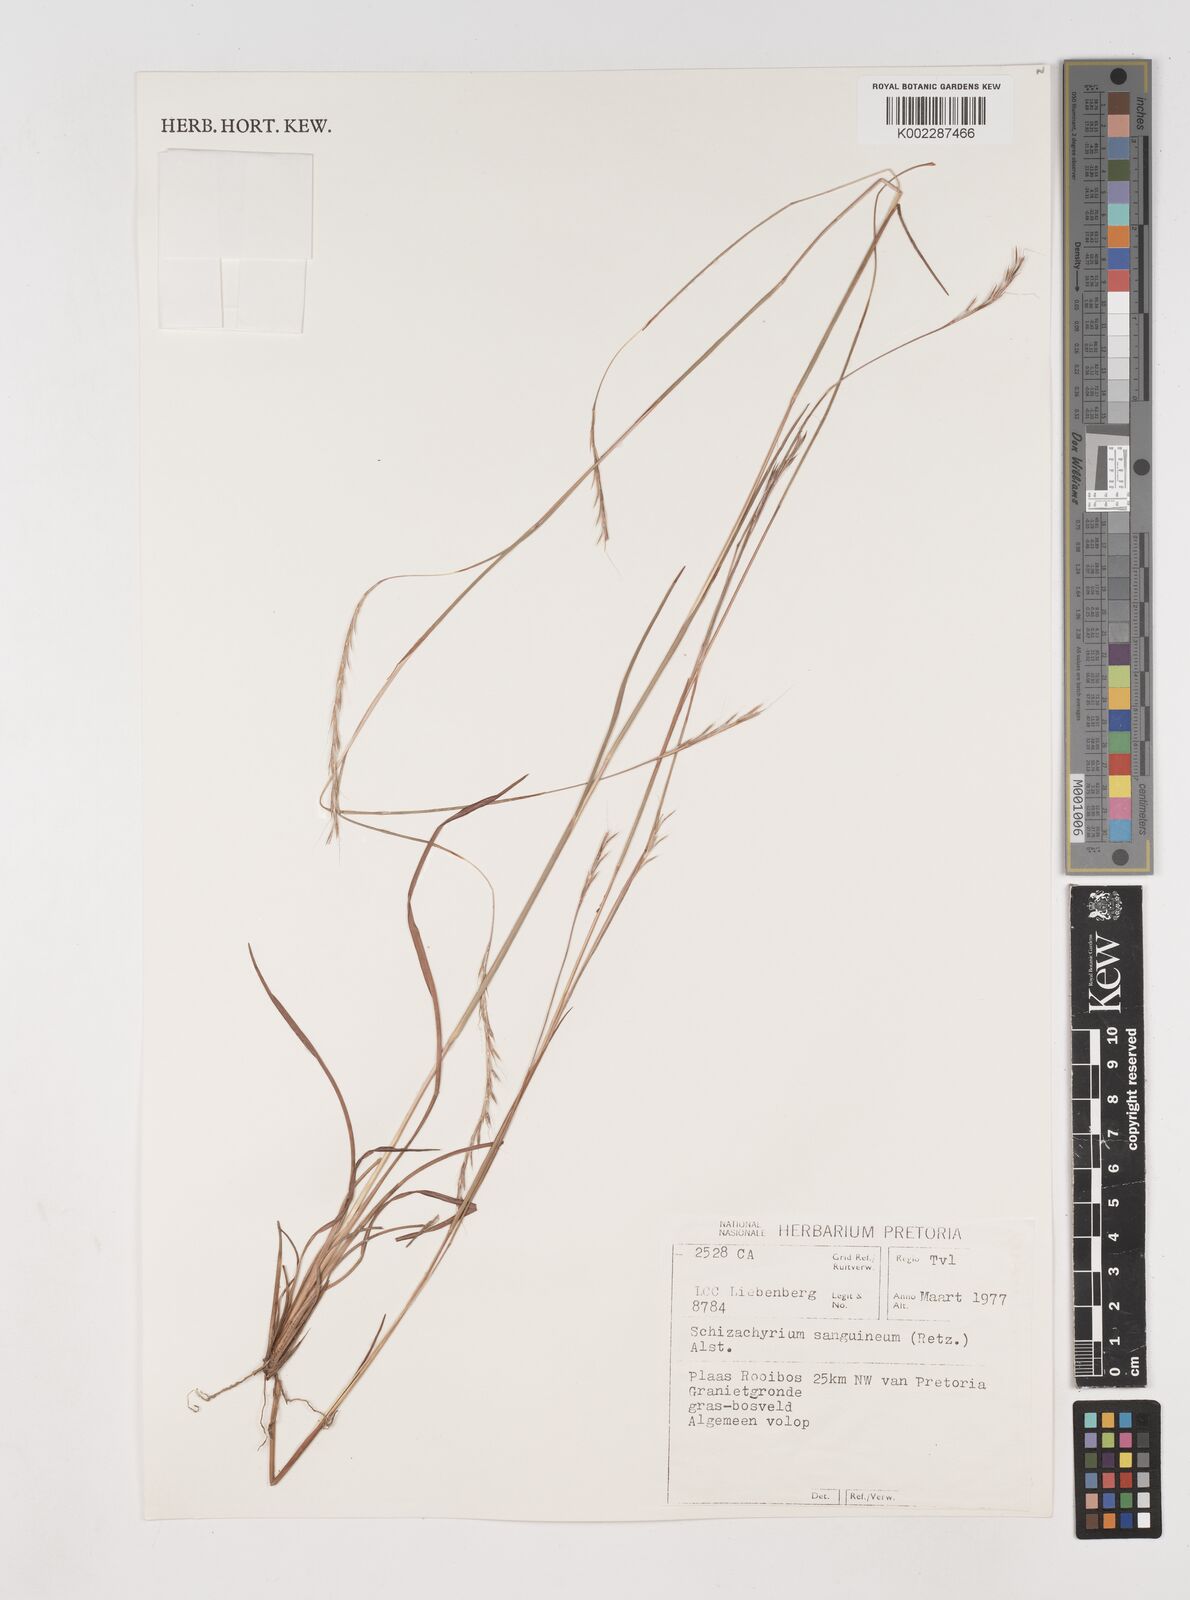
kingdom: Plantae
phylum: Tracheophyta
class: Liliopsida
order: Poales
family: Poaceae
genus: Schizachyrium
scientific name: Schizachyrium sanguineum
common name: Crimson bluestem
